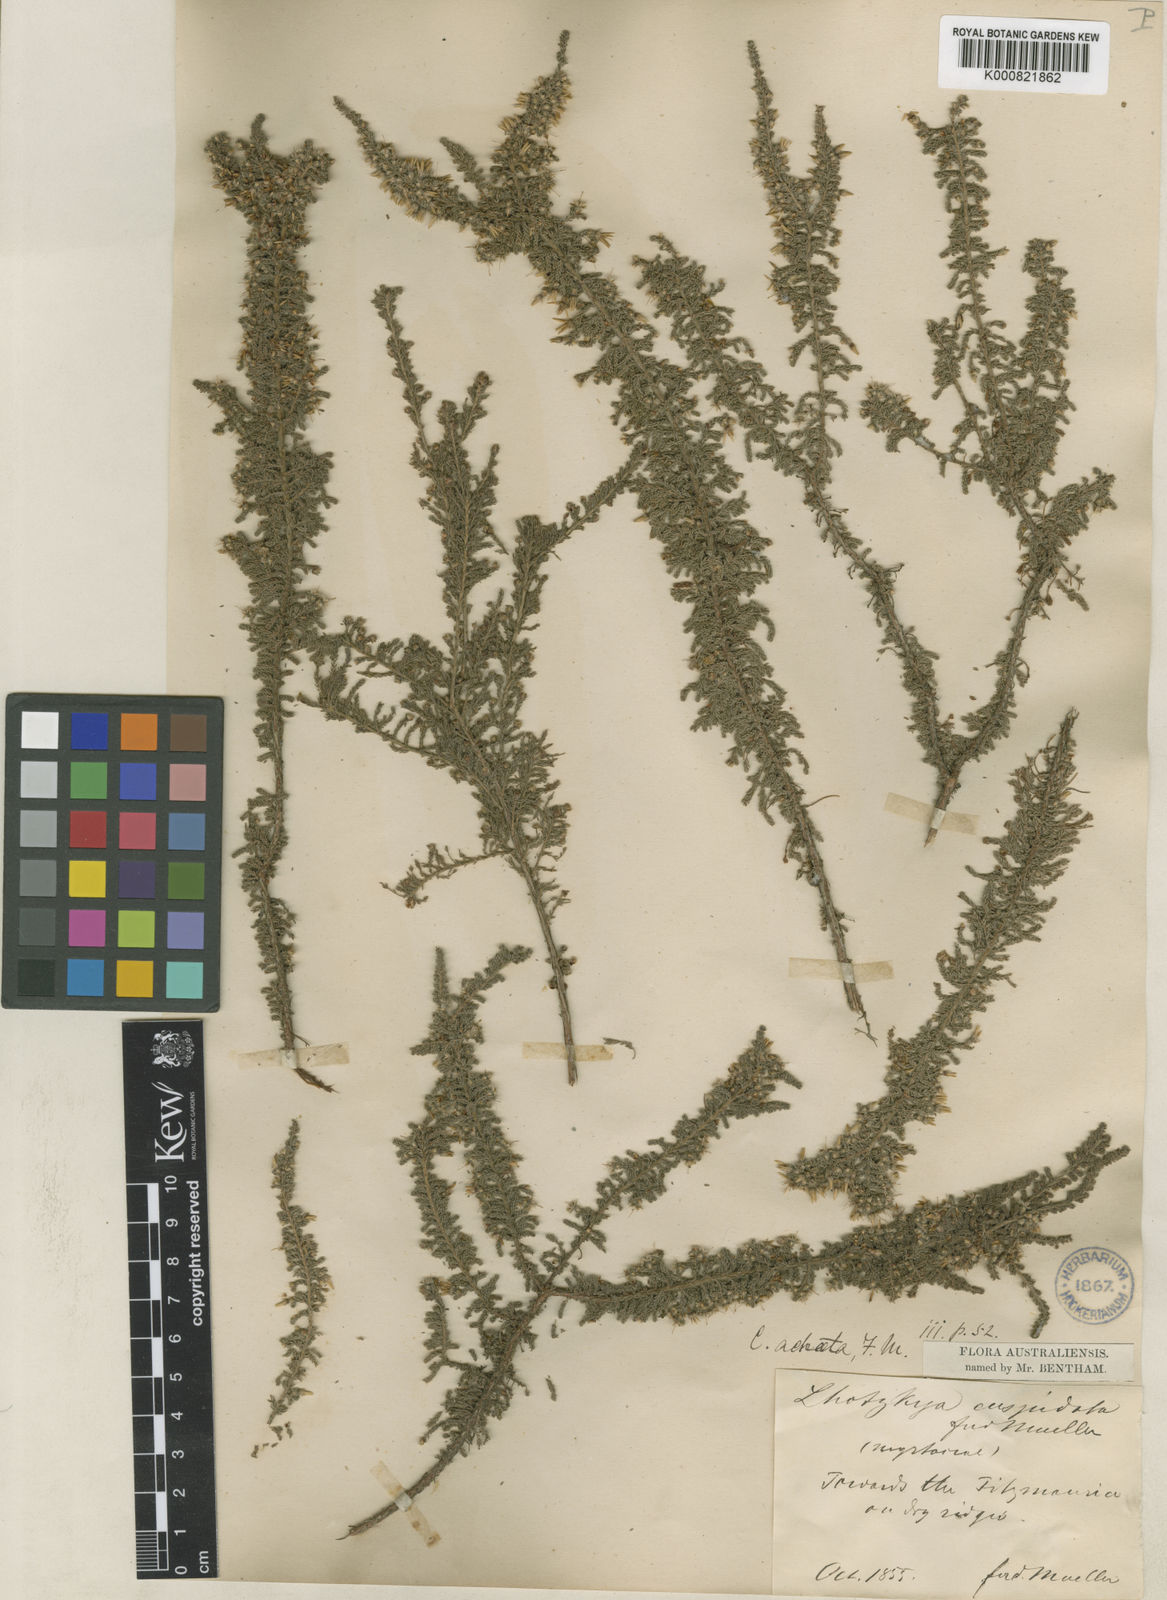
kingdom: Plantae
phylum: Tracheophyta
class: Magnoliopsida
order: Myrtales
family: Myrtaceae
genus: Calytrix
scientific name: Calytrix achaeta
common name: Fringe myrtle
